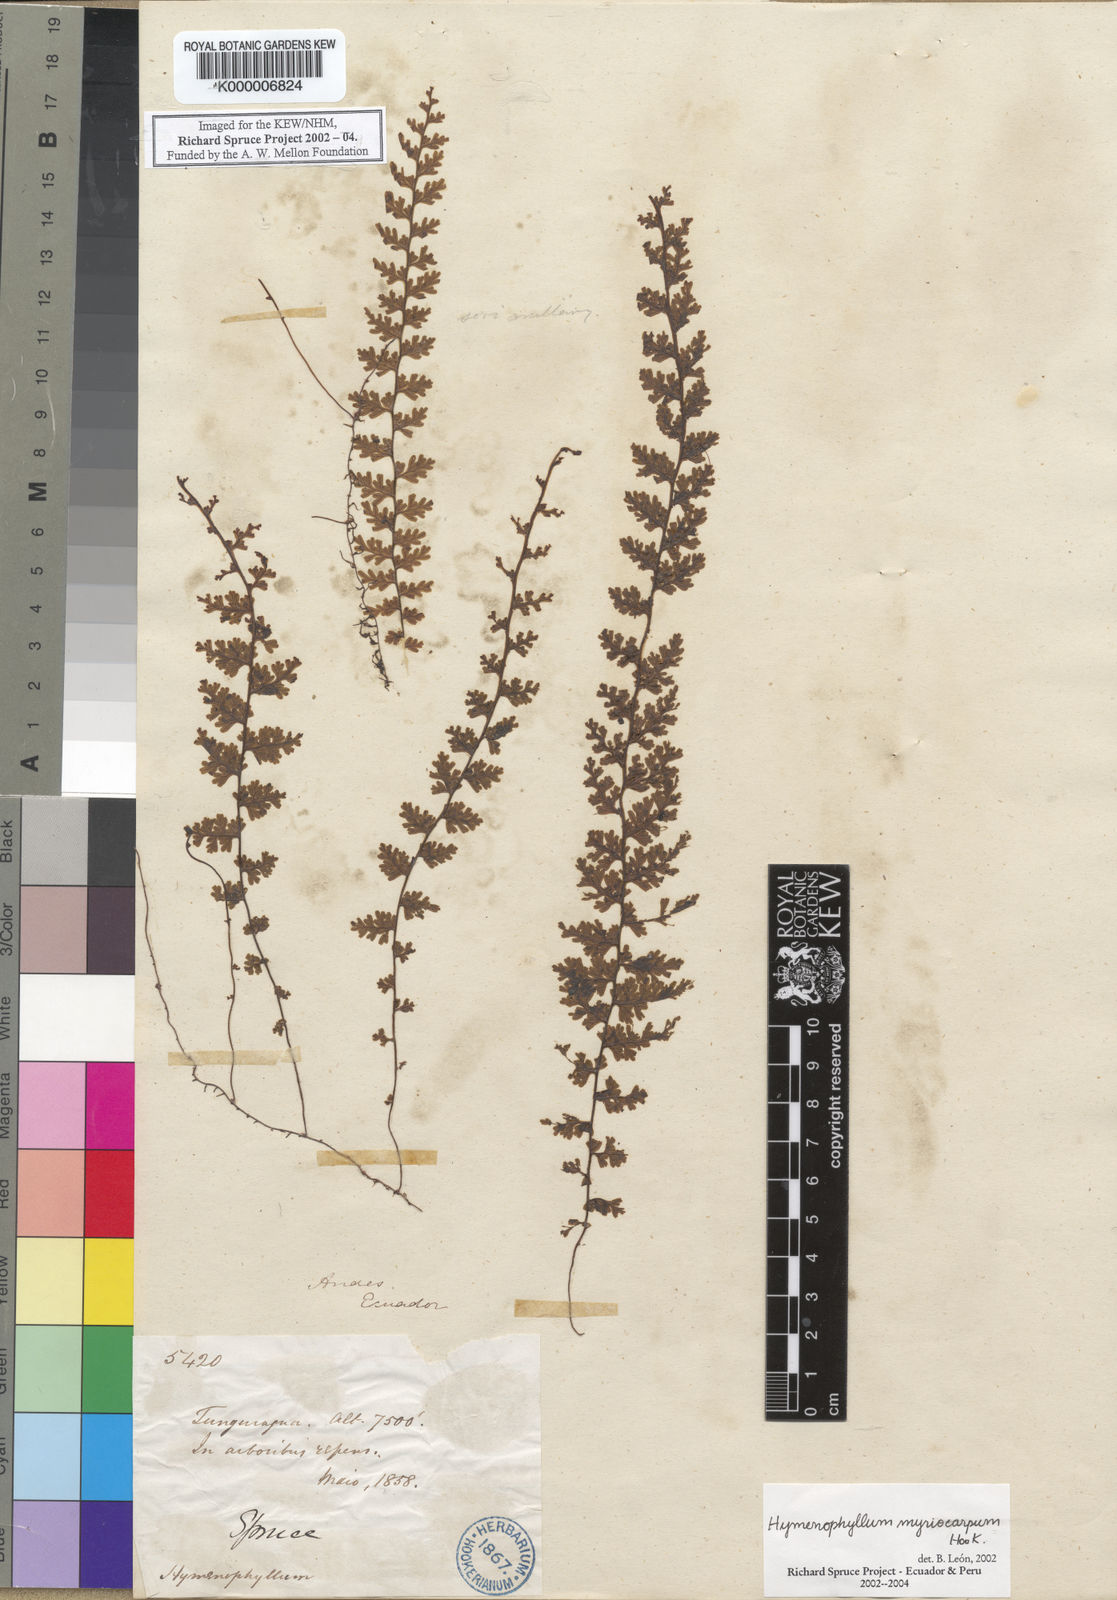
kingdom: Plantae
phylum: Tracheophyta
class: Polypodiopsida
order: Hymenophyllales
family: Hymenophyllaceae
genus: Hymenophyllum
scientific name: Hymenophyllum myriocarpum
